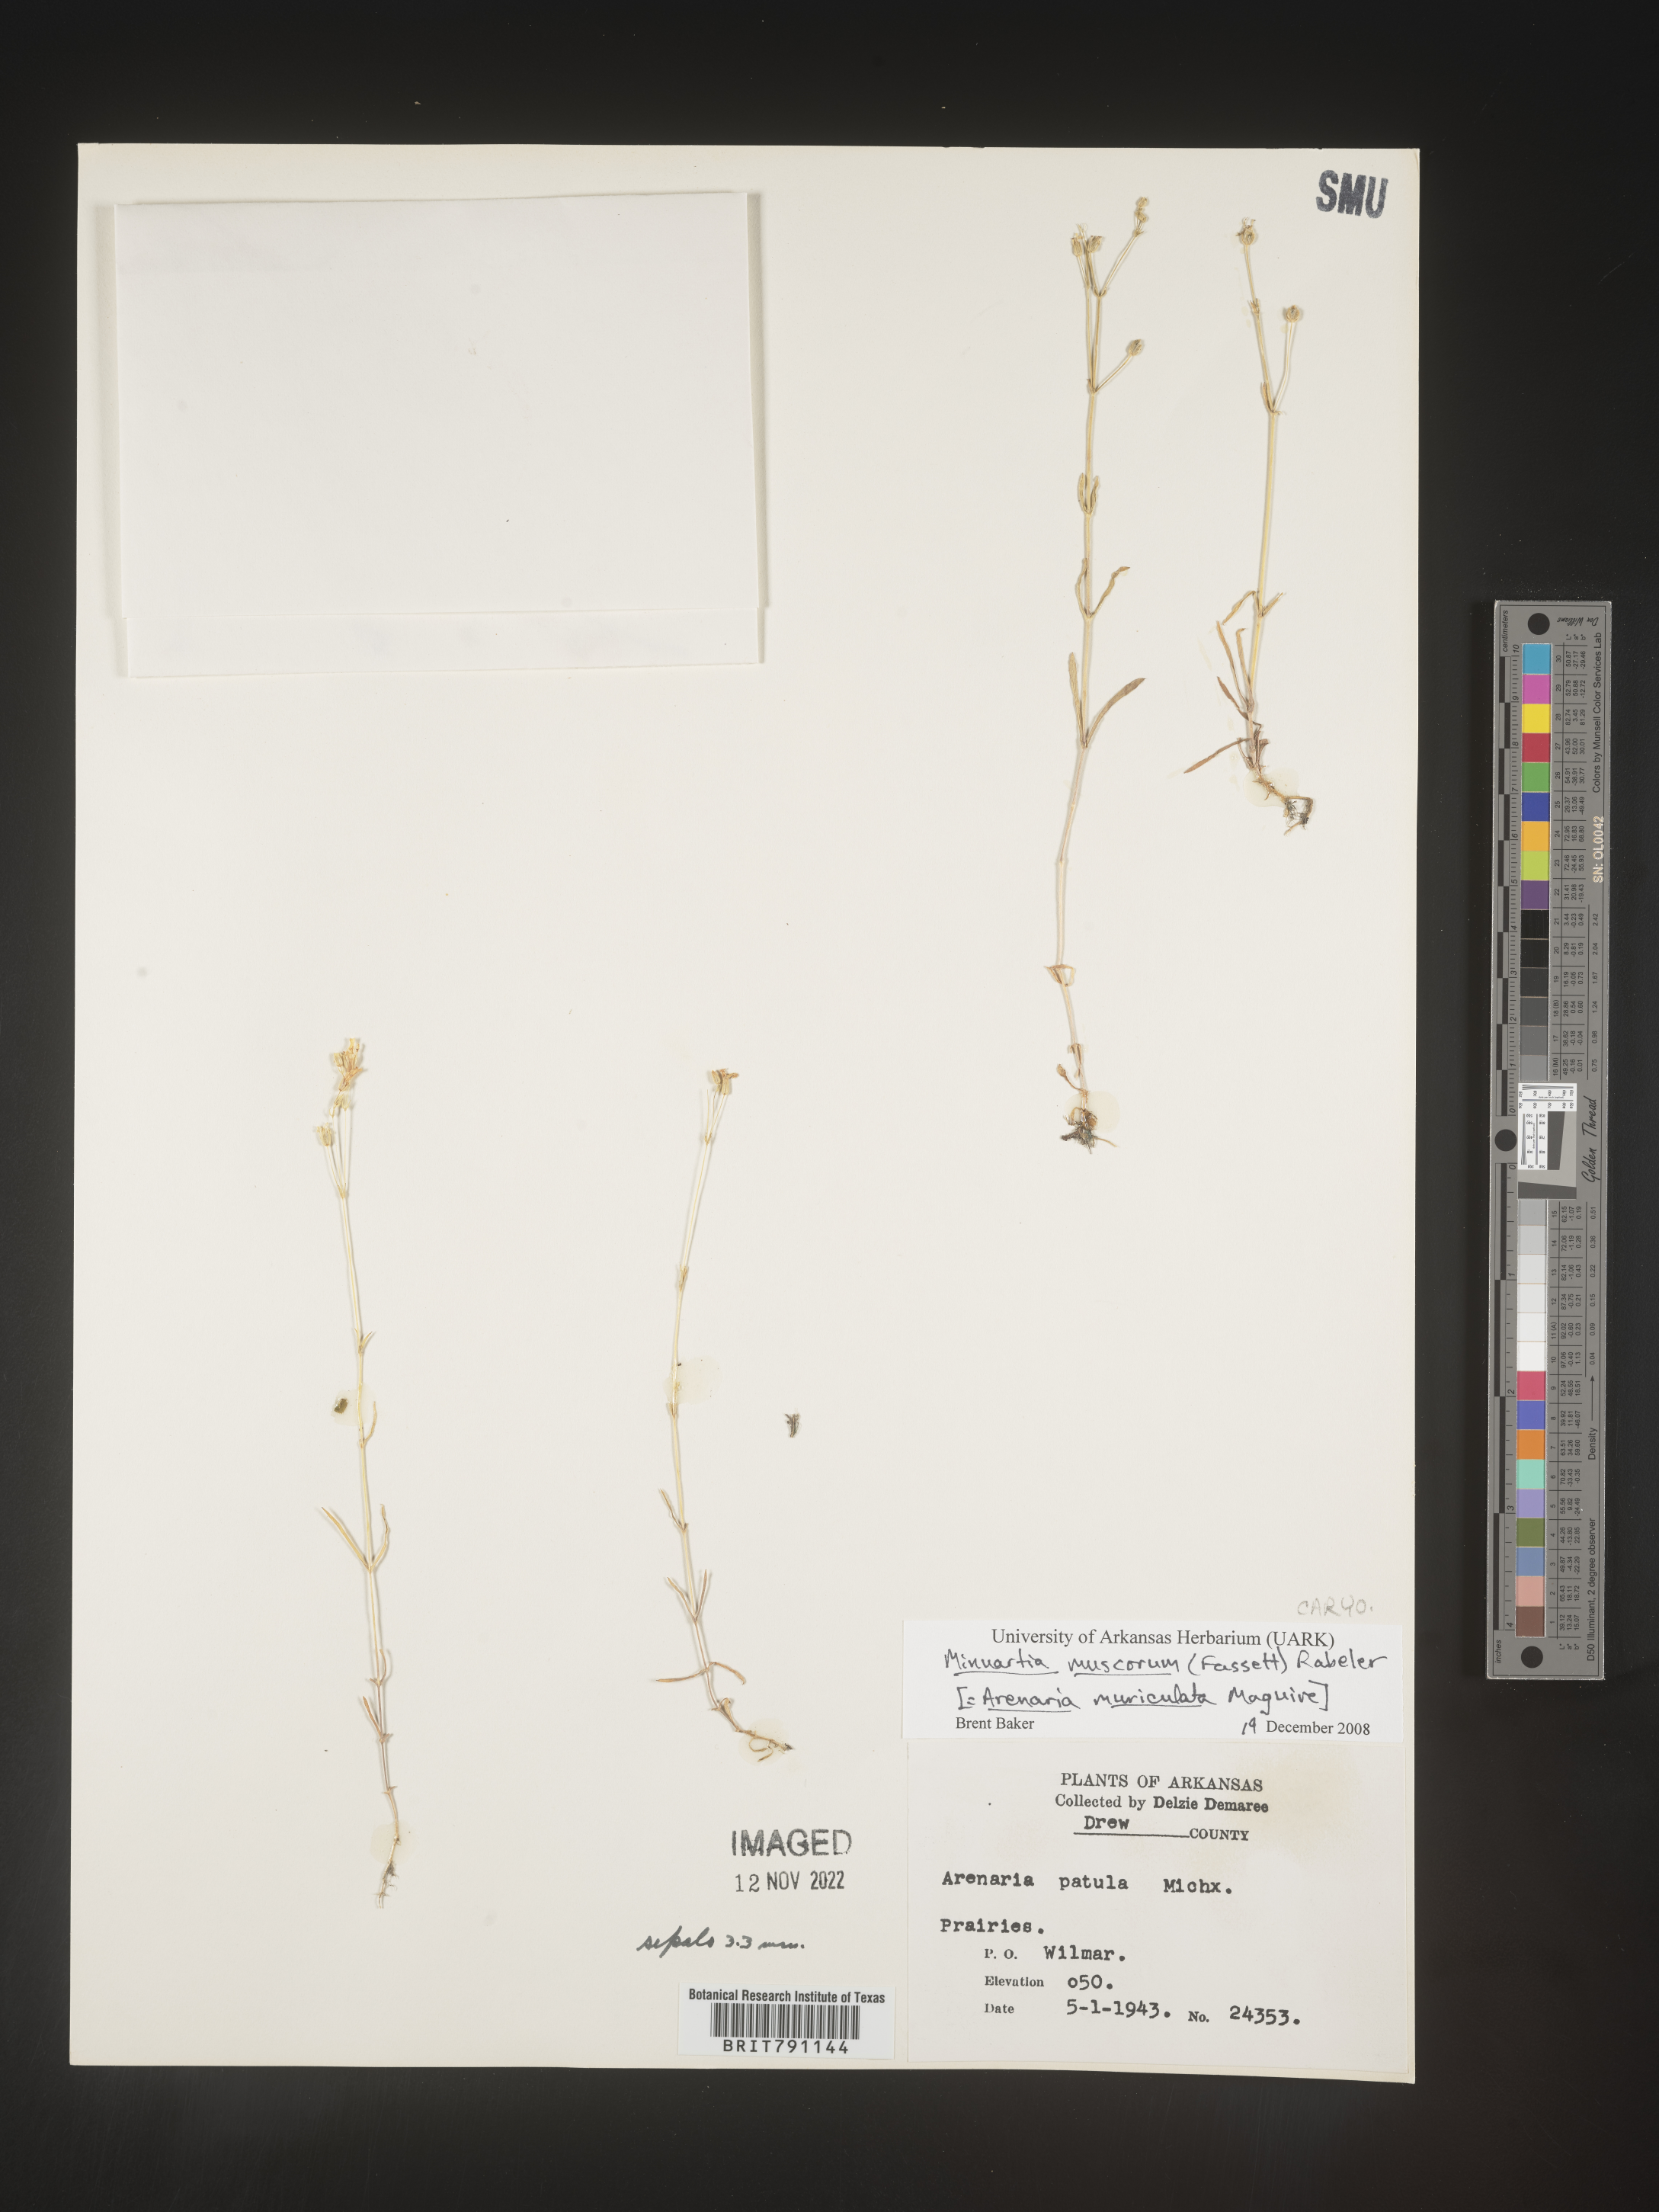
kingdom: Plantae
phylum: Tracheophyta
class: Magnoliopsida
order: Caryophyllales
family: Caryophyllaceae
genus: Mononeuria
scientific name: Mononeuria muscorum
